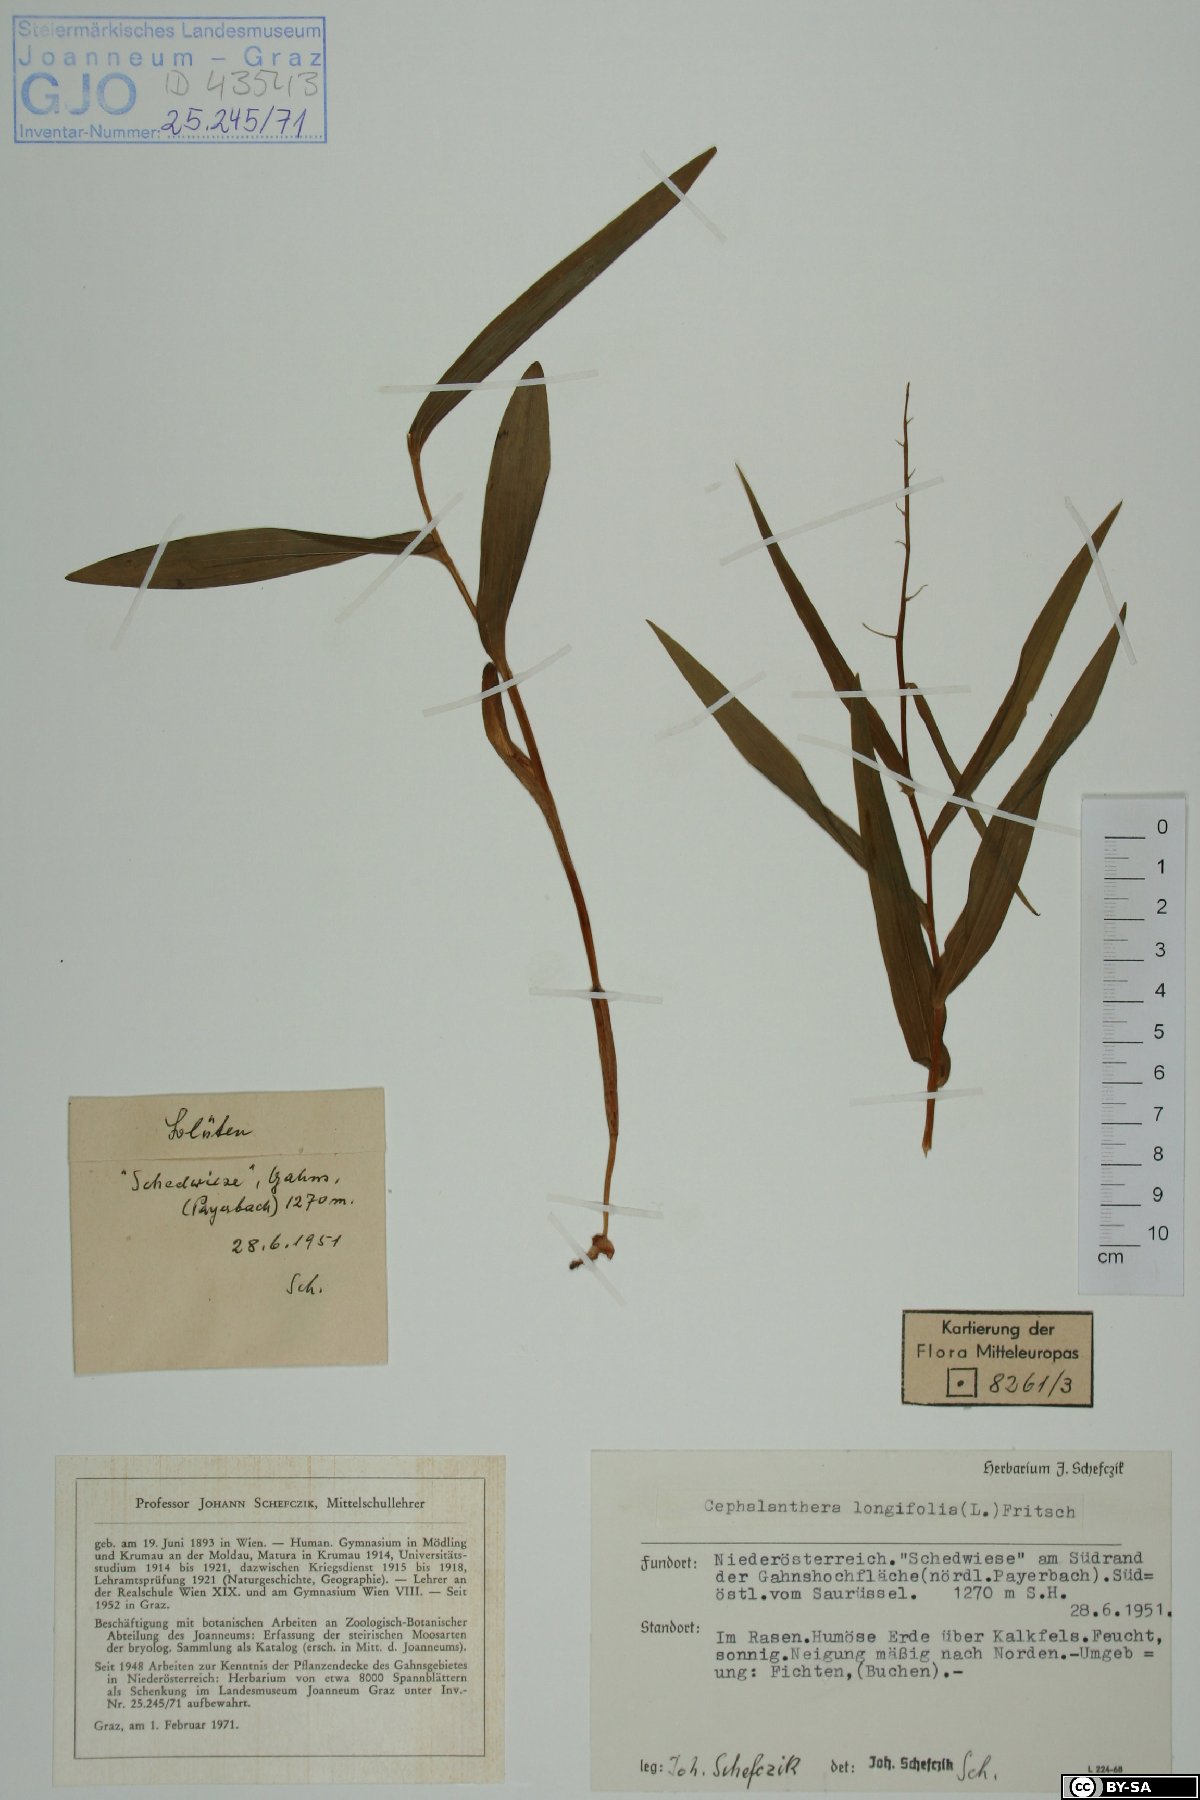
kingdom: Plantae
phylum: Tracheophyta
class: Liliopsida
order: Asparagales
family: Orchidaceae
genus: Cephalanthera
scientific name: Cephalanthera longifolia
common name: Narrow-leaved helleborine
